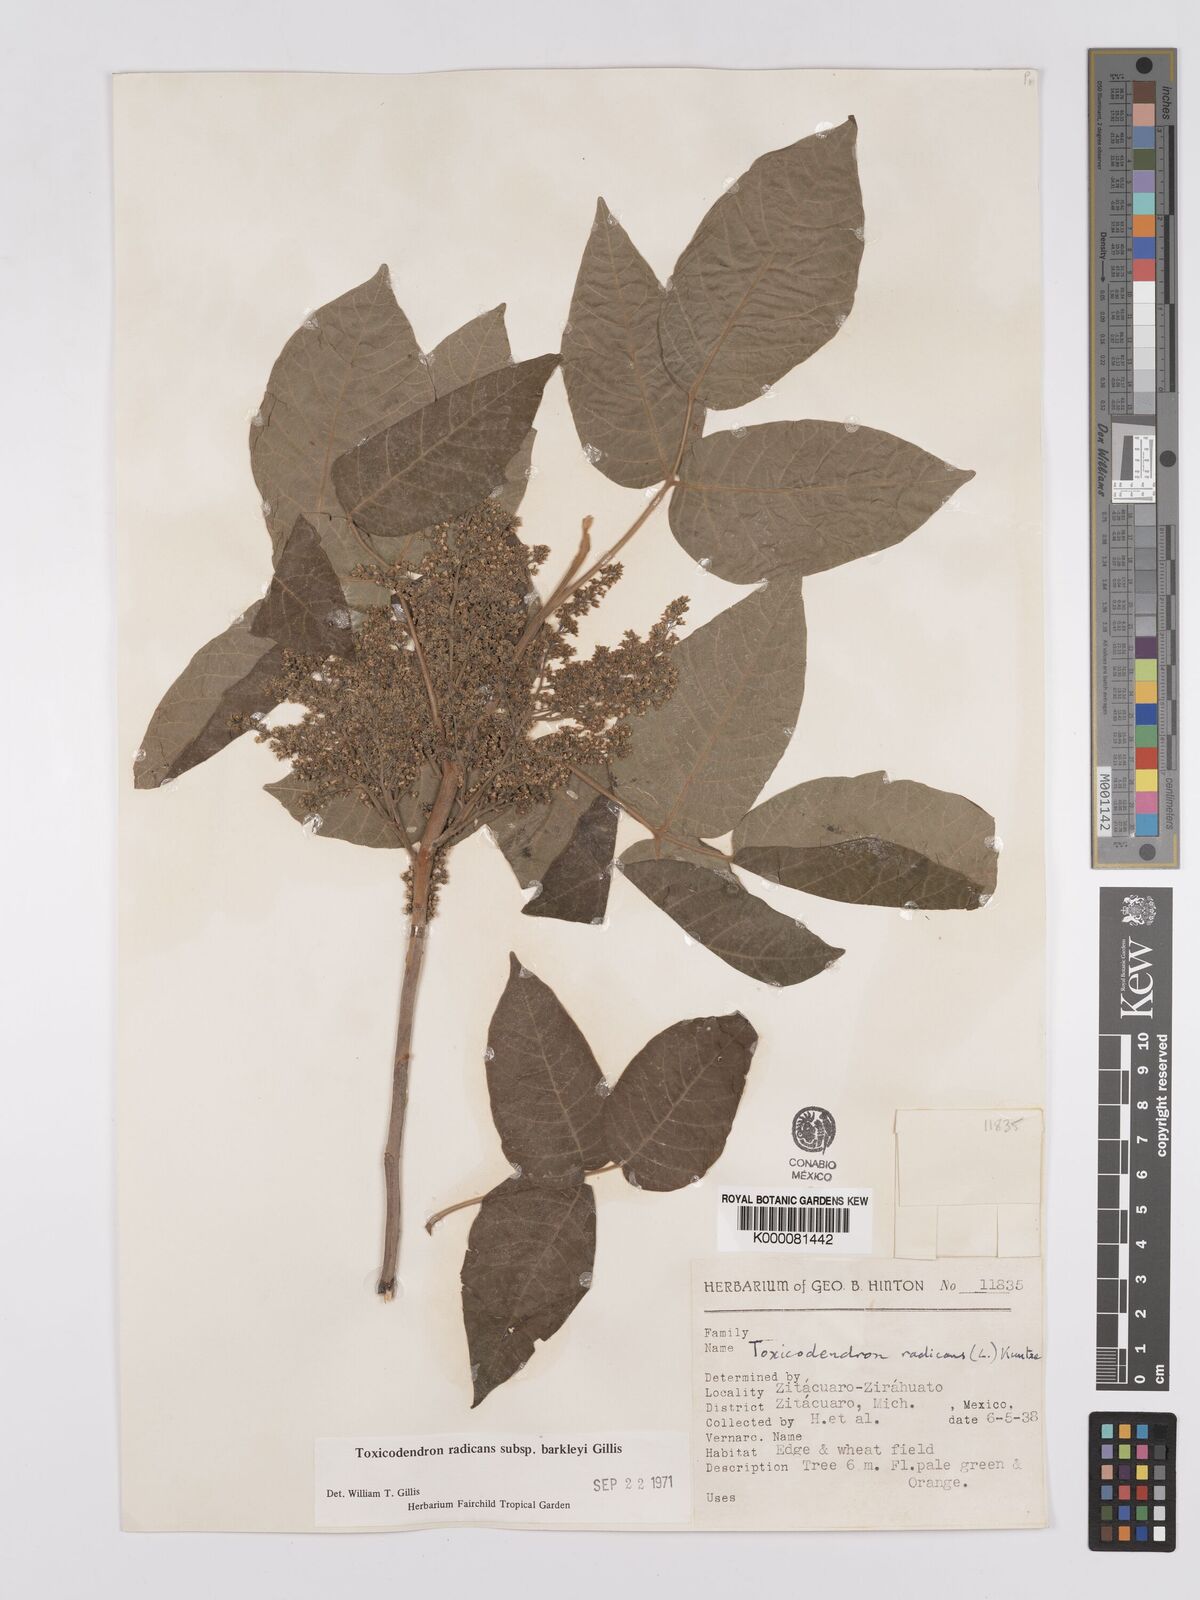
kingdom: Plantae
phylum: Tracheophyta
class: Magnoliopsida
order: Sapindales
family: Anacardiaceae
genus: Toxicodendron
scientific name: Toxicodendron radicans
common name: Poison ivy
